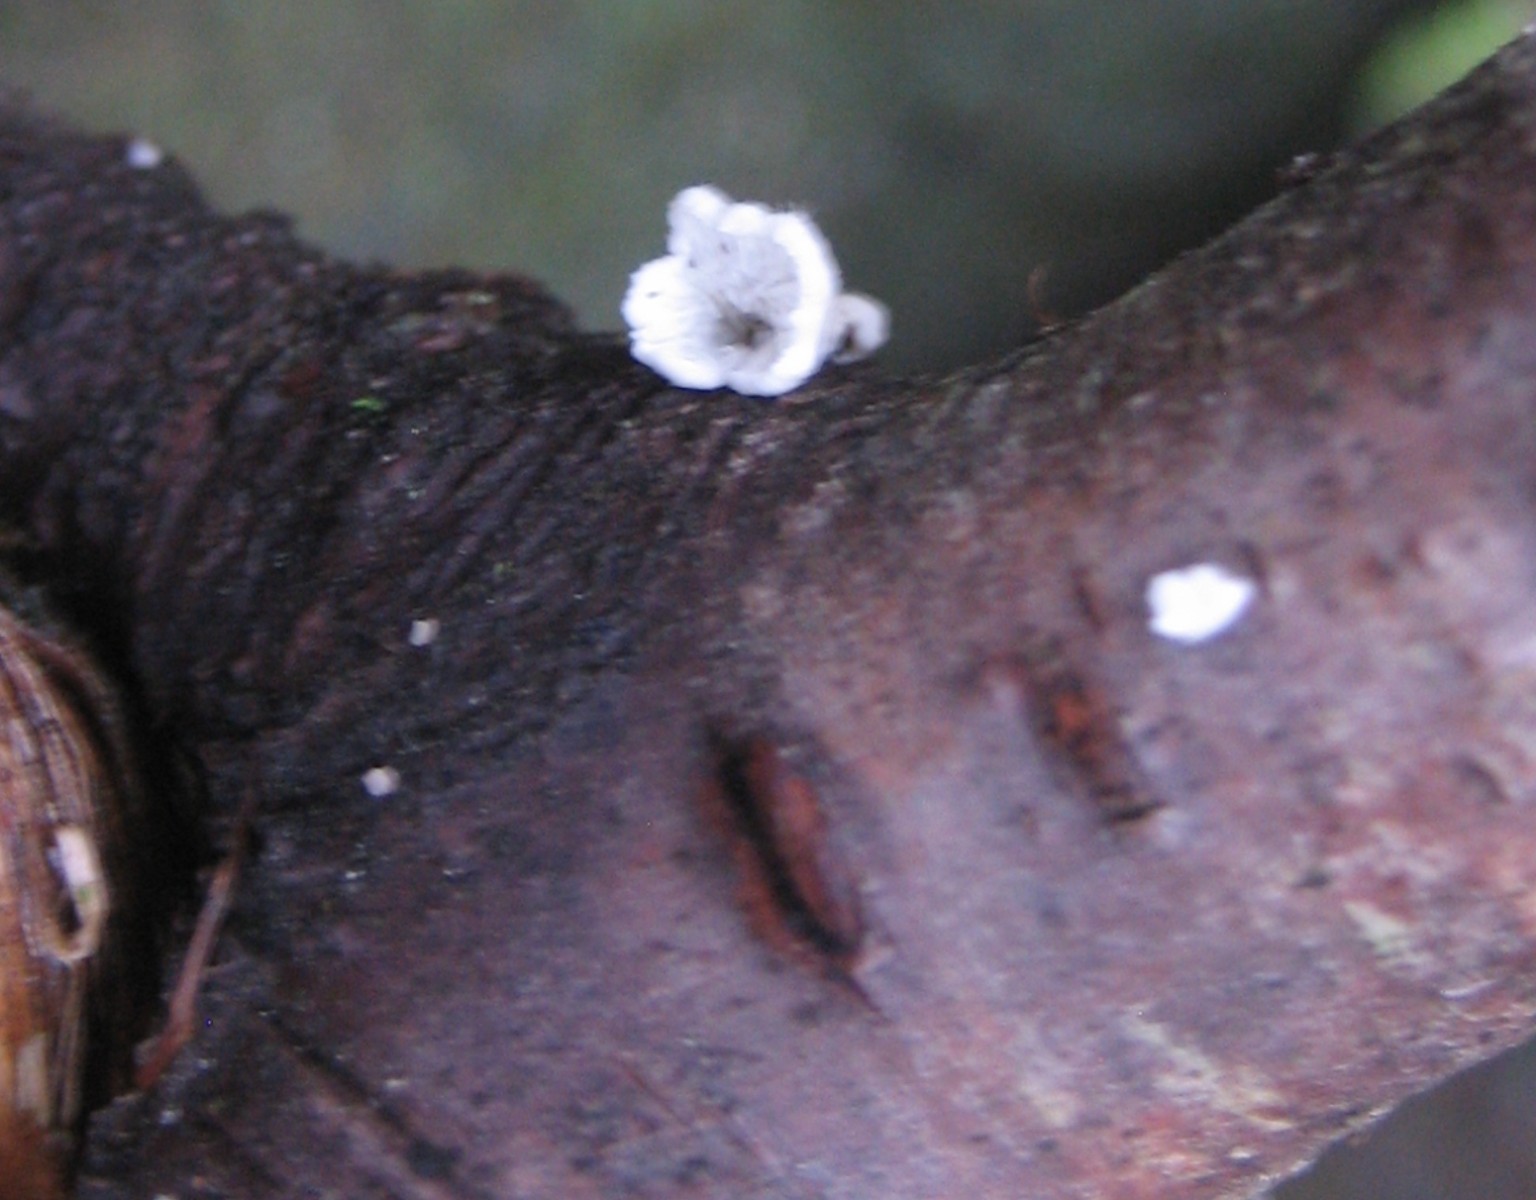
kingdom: Fungi
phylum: Basidiomycota
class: Agaricomycetes
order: Amylocorticiales
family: Amylocorticiaceae
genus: Plicaturopsis
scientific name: Plicaturopsis crispa
